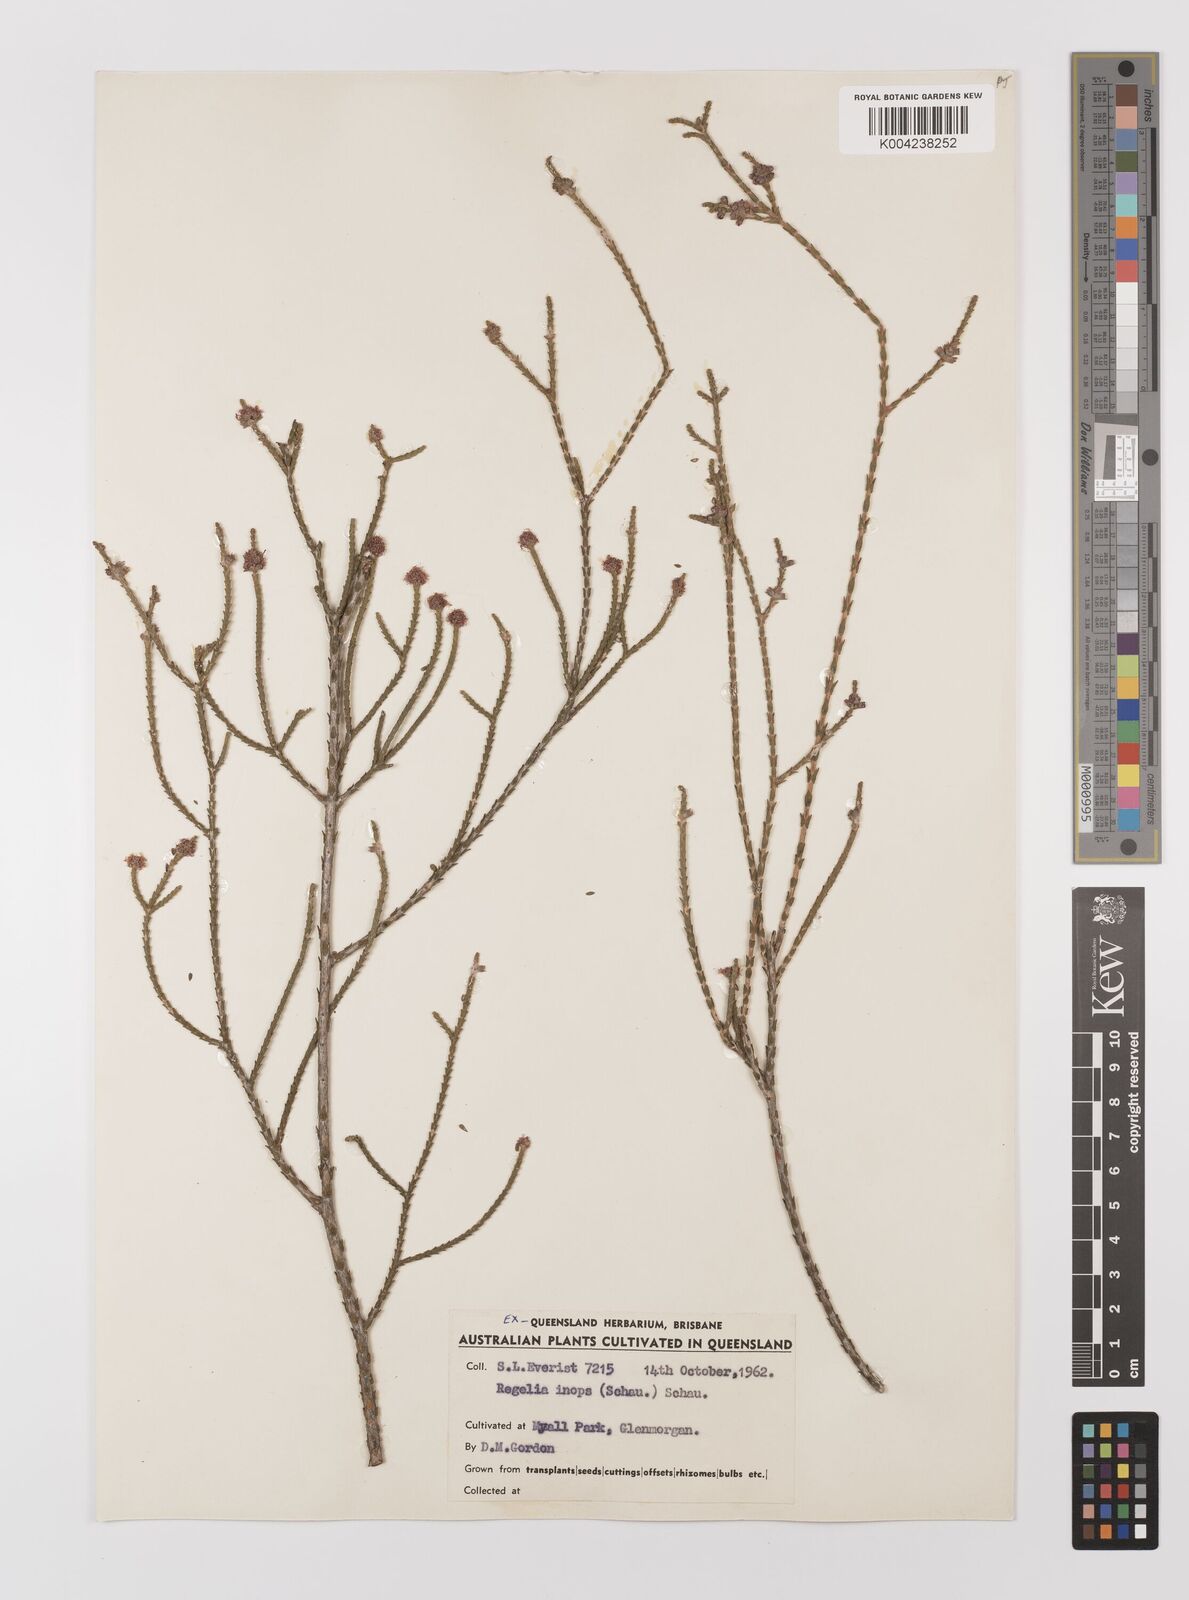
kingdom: Plantae
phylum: Tracheophyta
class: Magnoliopsida
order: Myrtales
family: Myrtaceae
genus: Melaleuca
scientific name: Melaleuca inops
